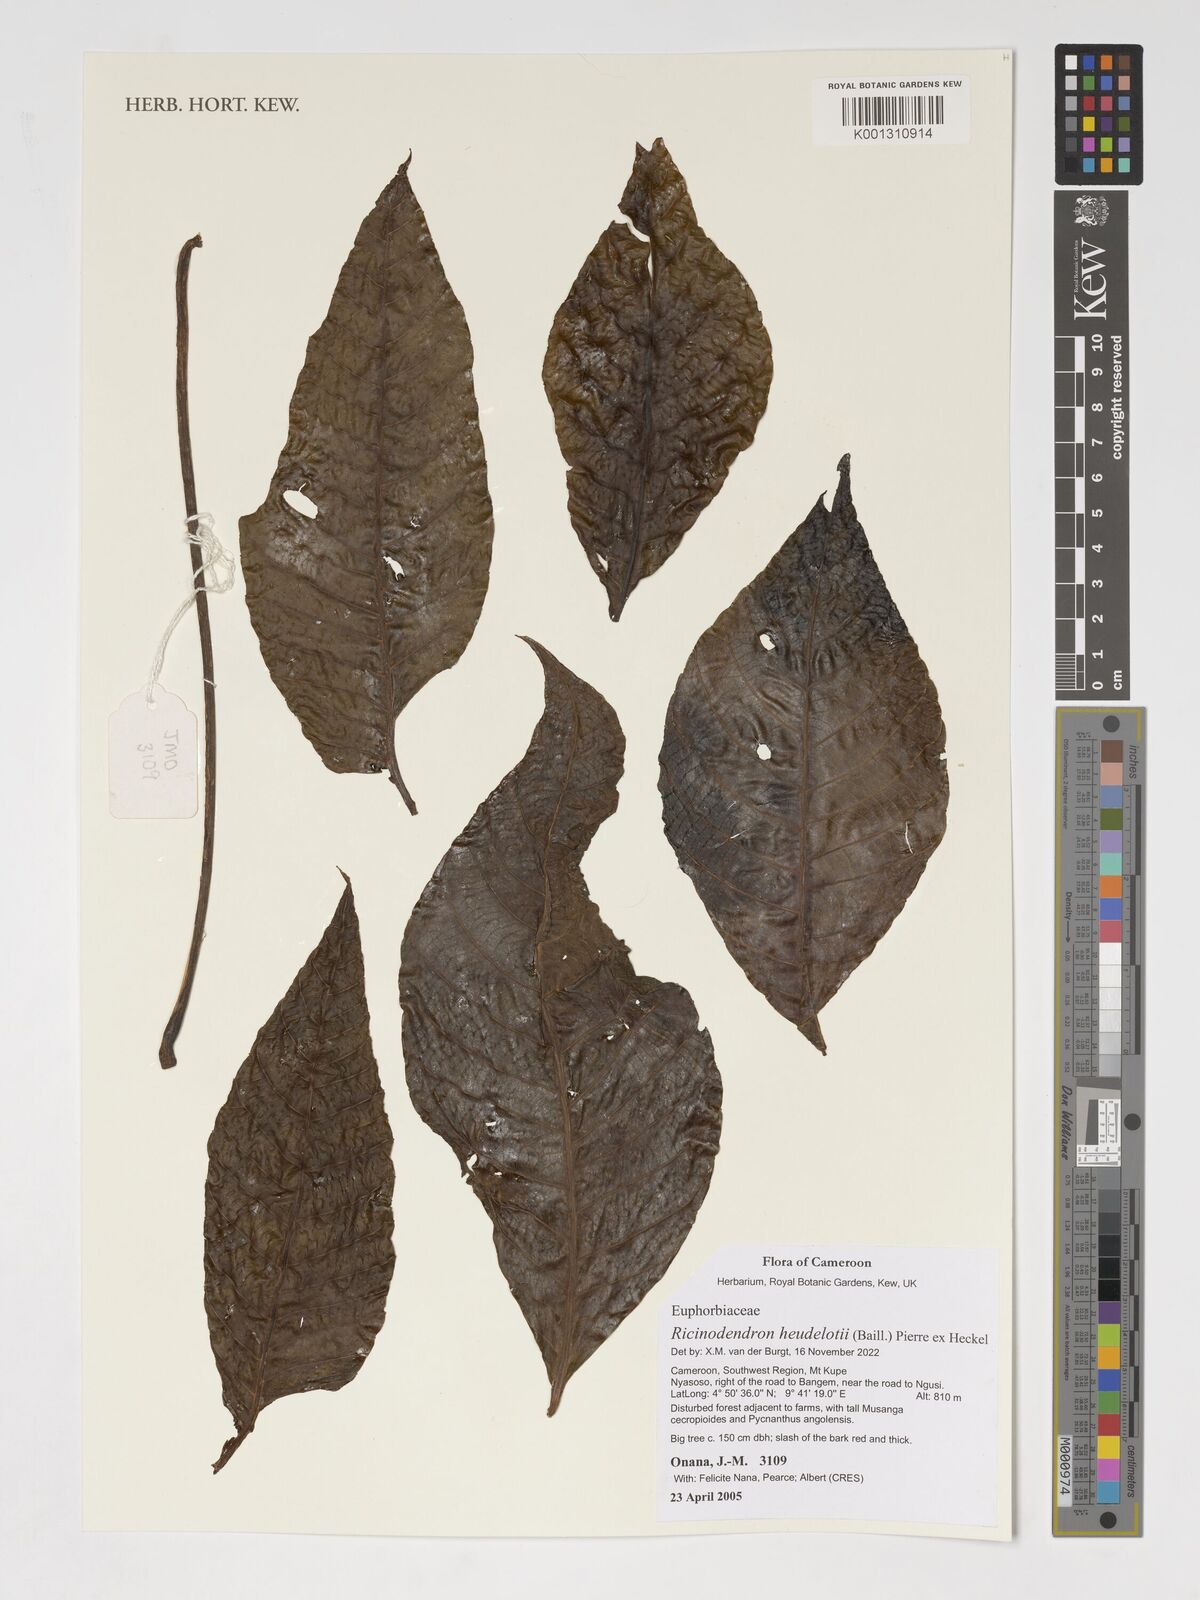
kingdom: Plantae
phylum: Tracheophyta
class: Magnoliopsida
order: Malpighiales
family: Euphorbiaceae
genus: Ricinodendron
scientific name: Ricinodendron heudelotii
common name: African nut-tree
